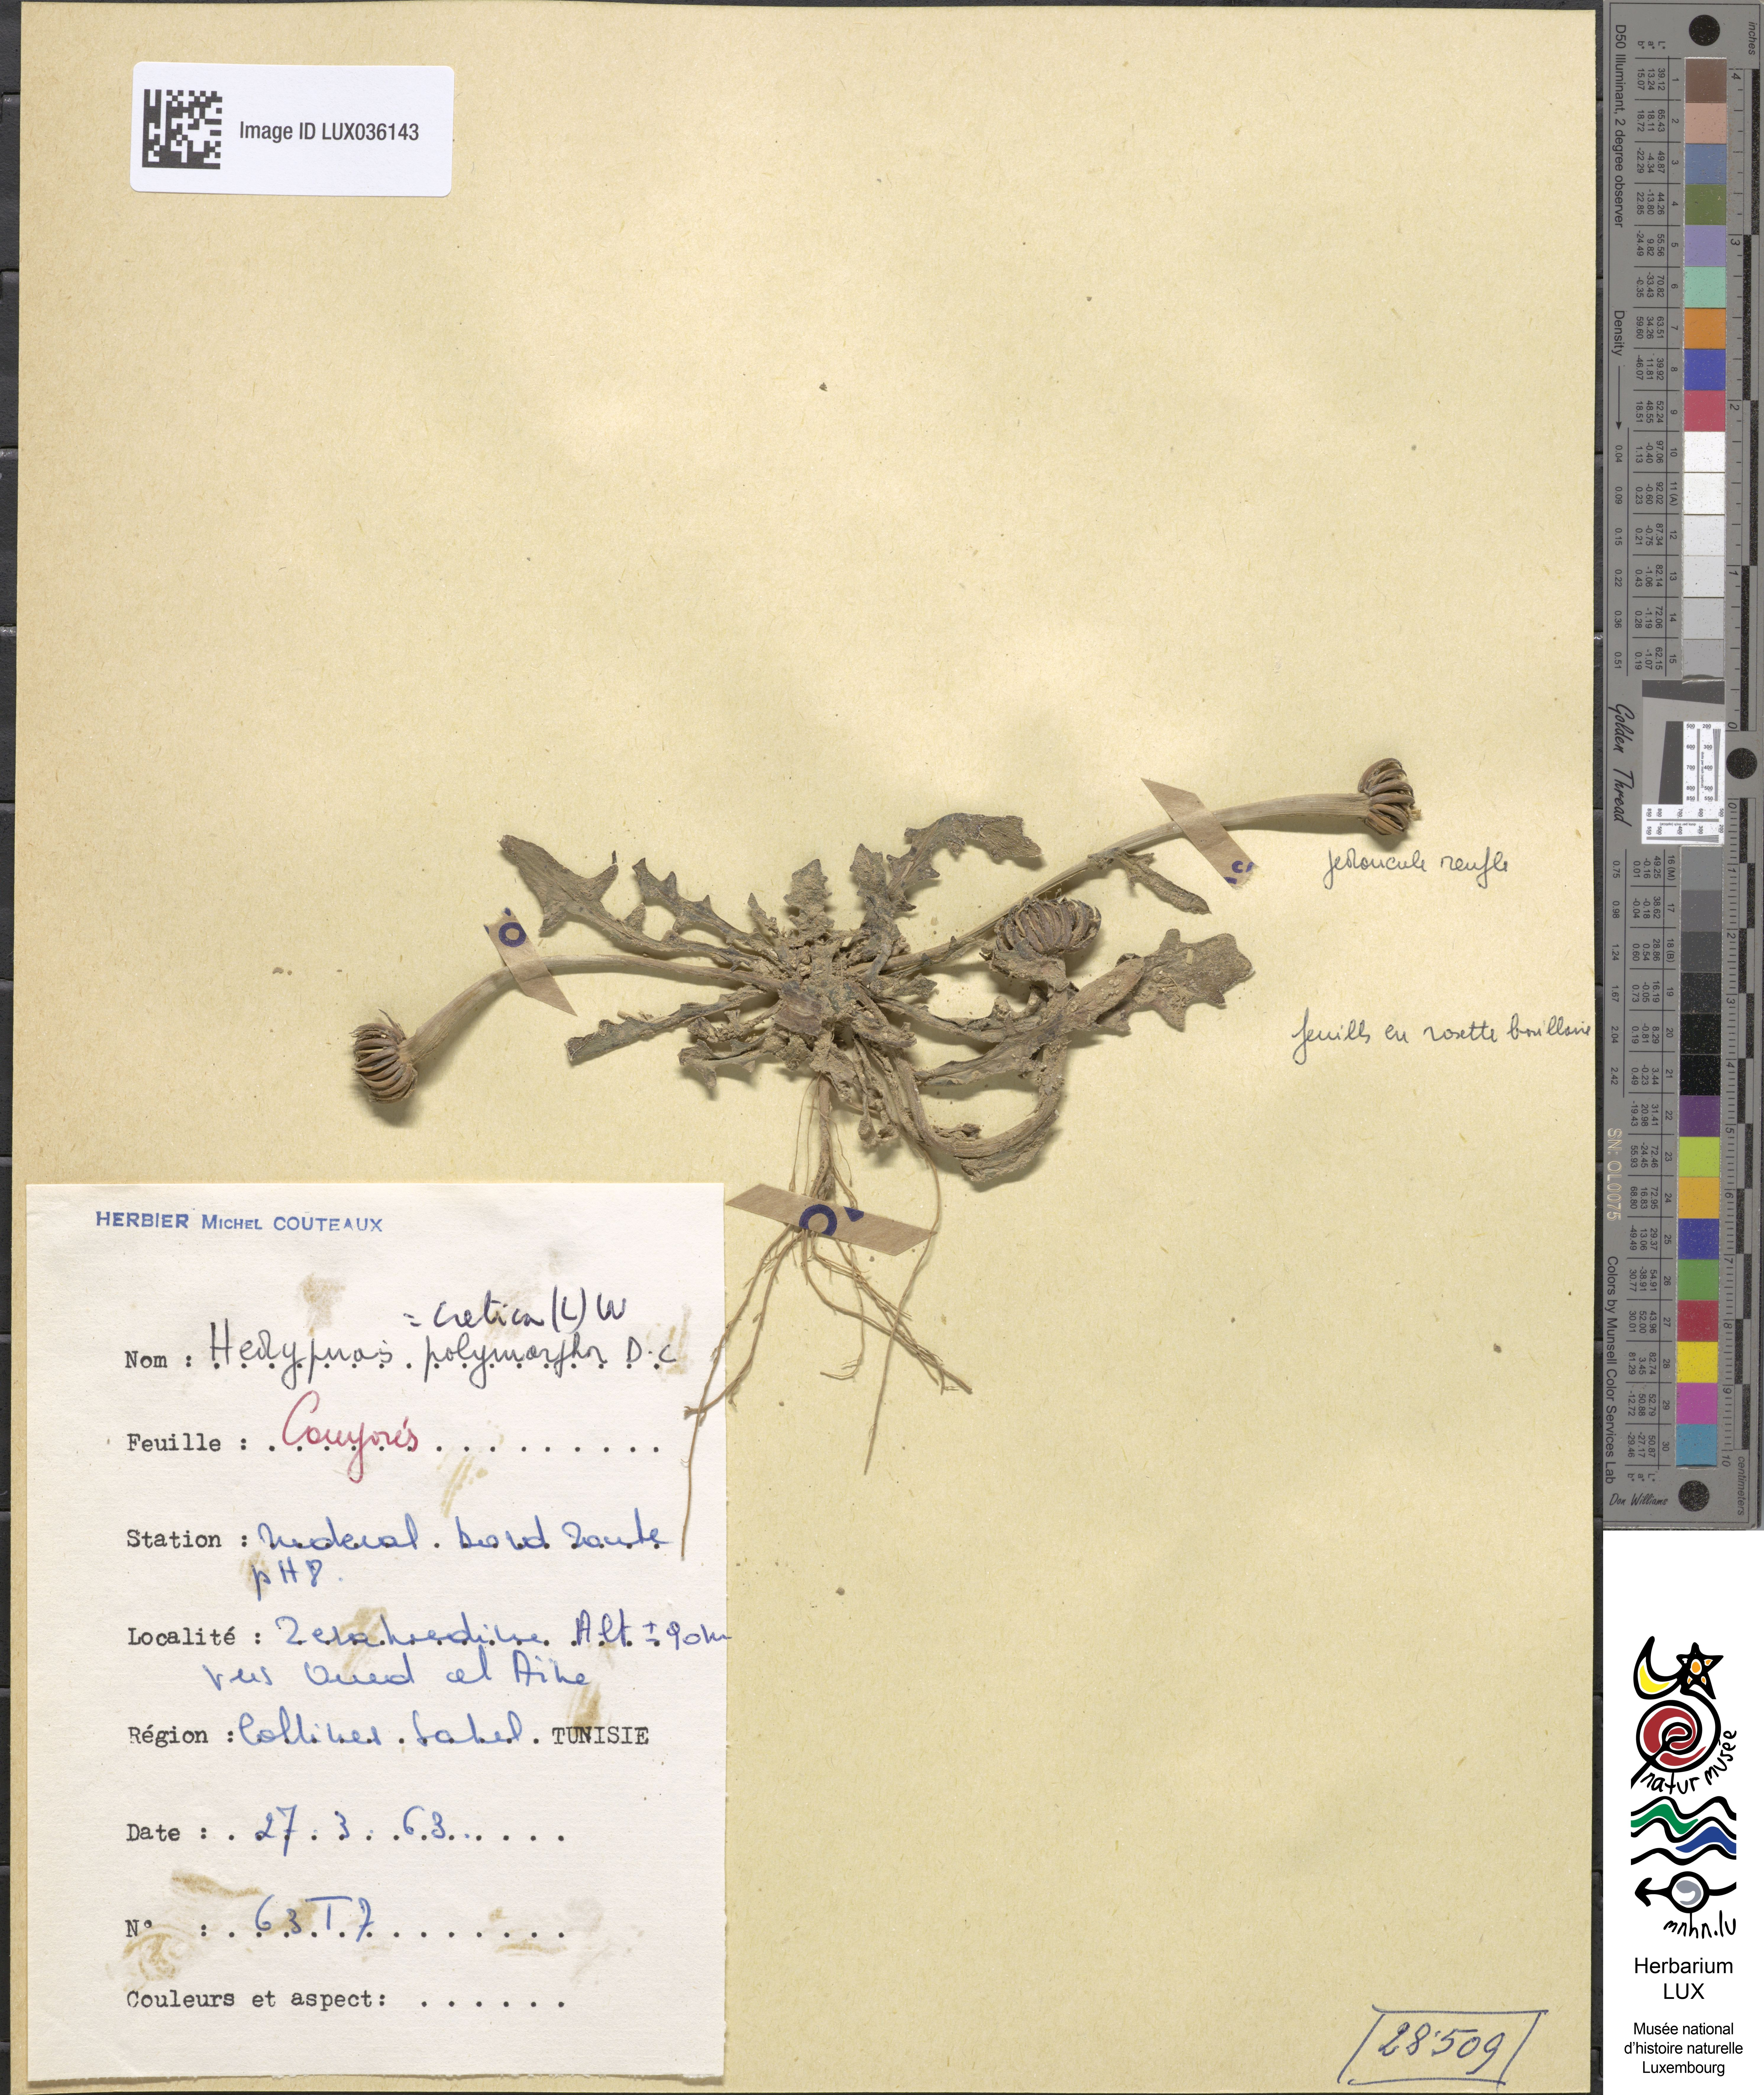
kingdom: Plantae
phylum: Tracheophyta
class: Magnoliopsida
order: Asterales
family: Asteraceae
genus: Hedypnois
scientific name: Hedypnois cretica
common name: Scaly hawkbit
